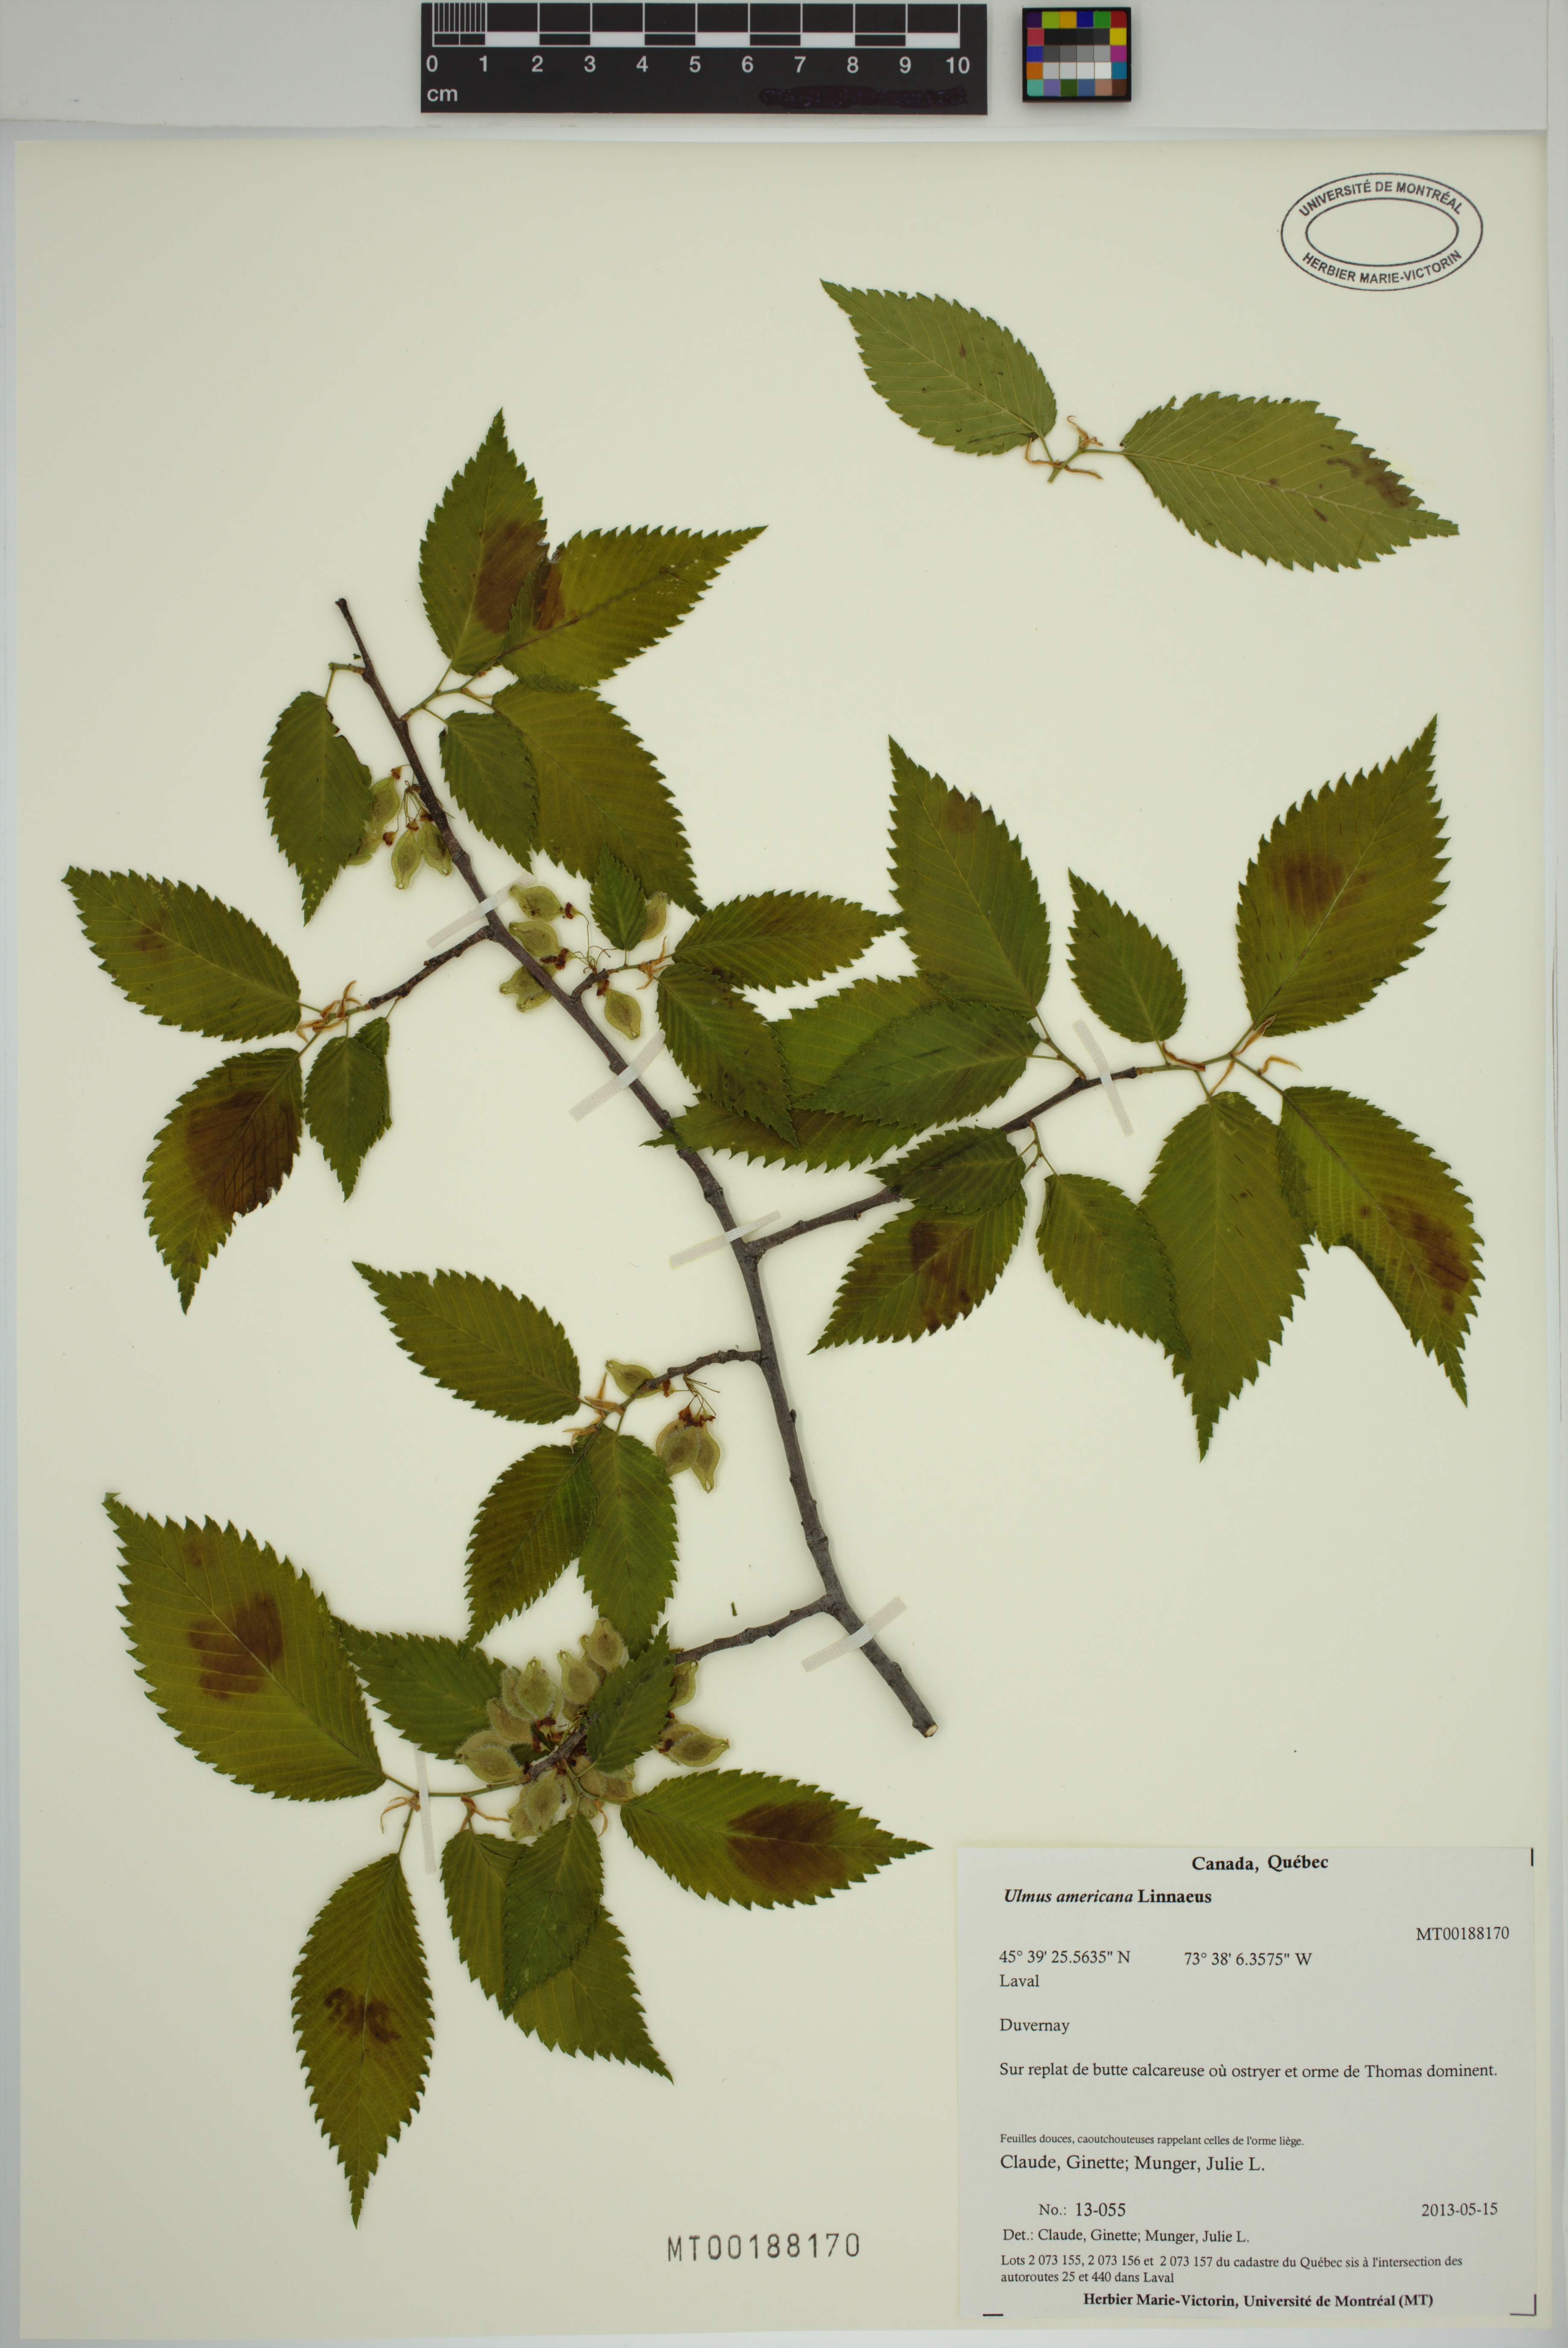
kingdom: Plantae
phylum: Tracheophyta
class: Magnoliopsida
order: Rosales
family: Ulmaceae
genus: Ulmus
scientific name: Ulmus americana
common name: American elm
